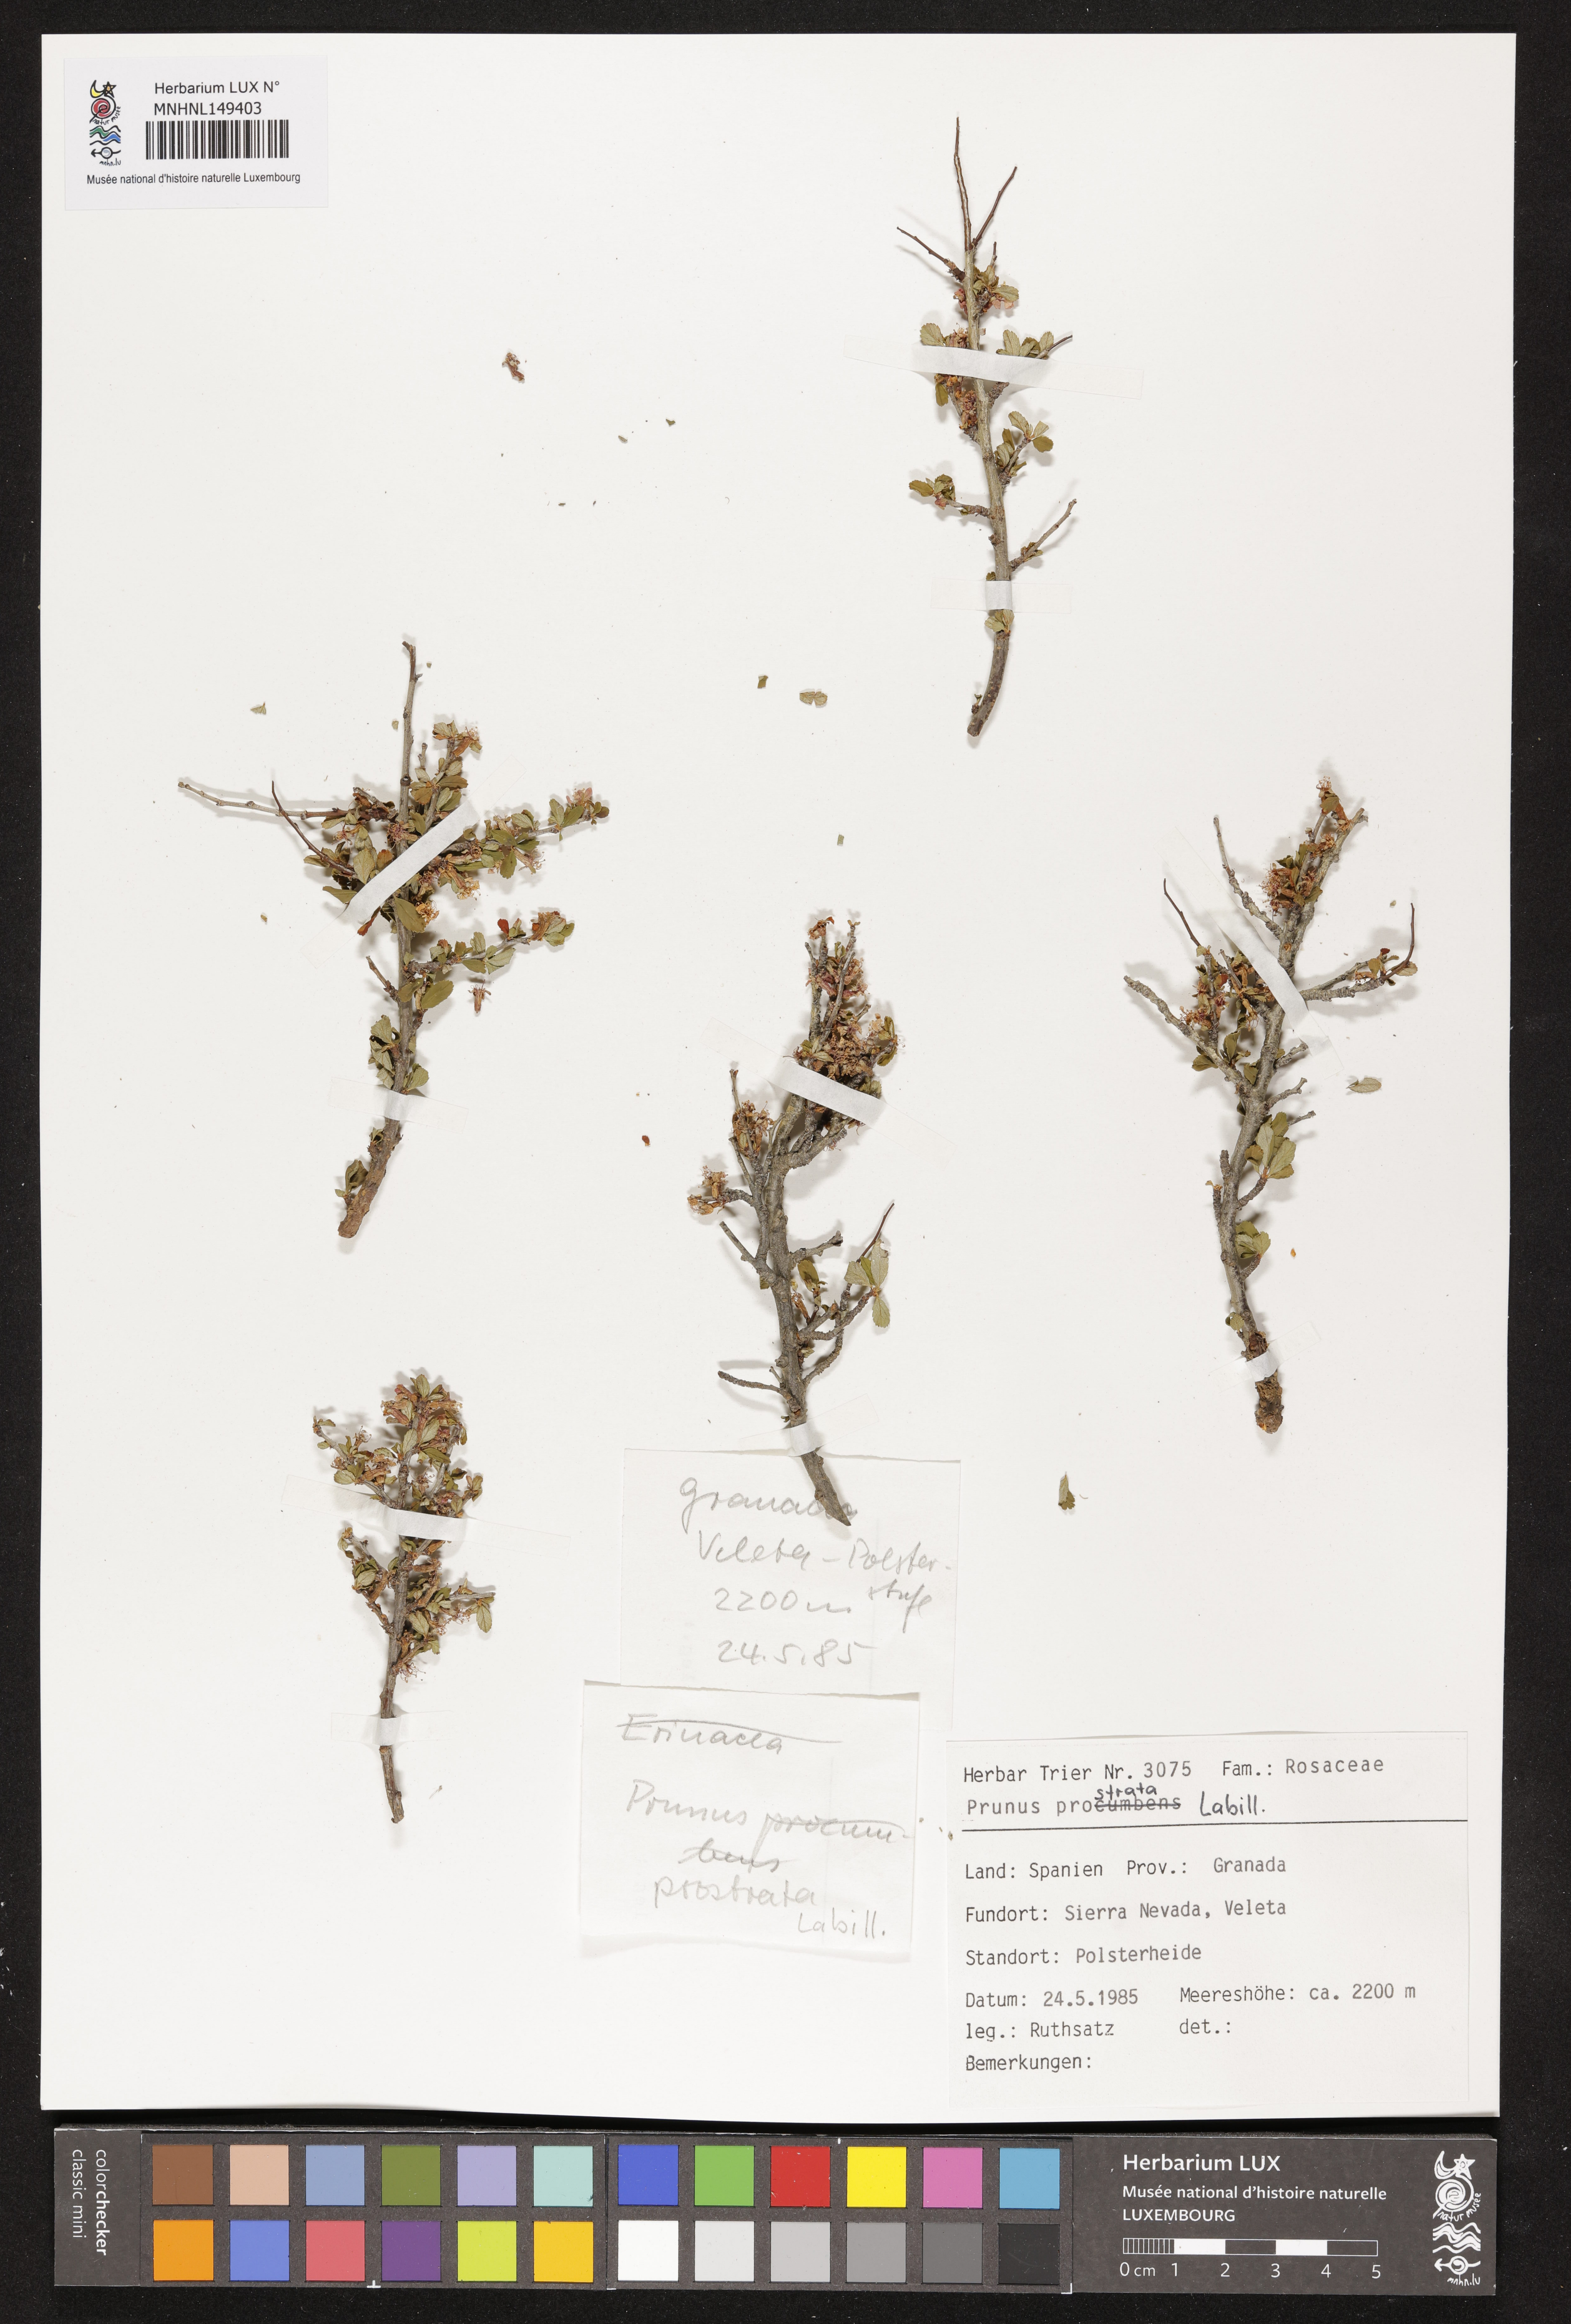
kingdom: Plantae
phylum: Tracheophyta
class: Magnoliopsida
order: Rosales
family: Rosaceae
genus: Prunus
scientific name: Prunus prostrata
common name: Mountain cherry
